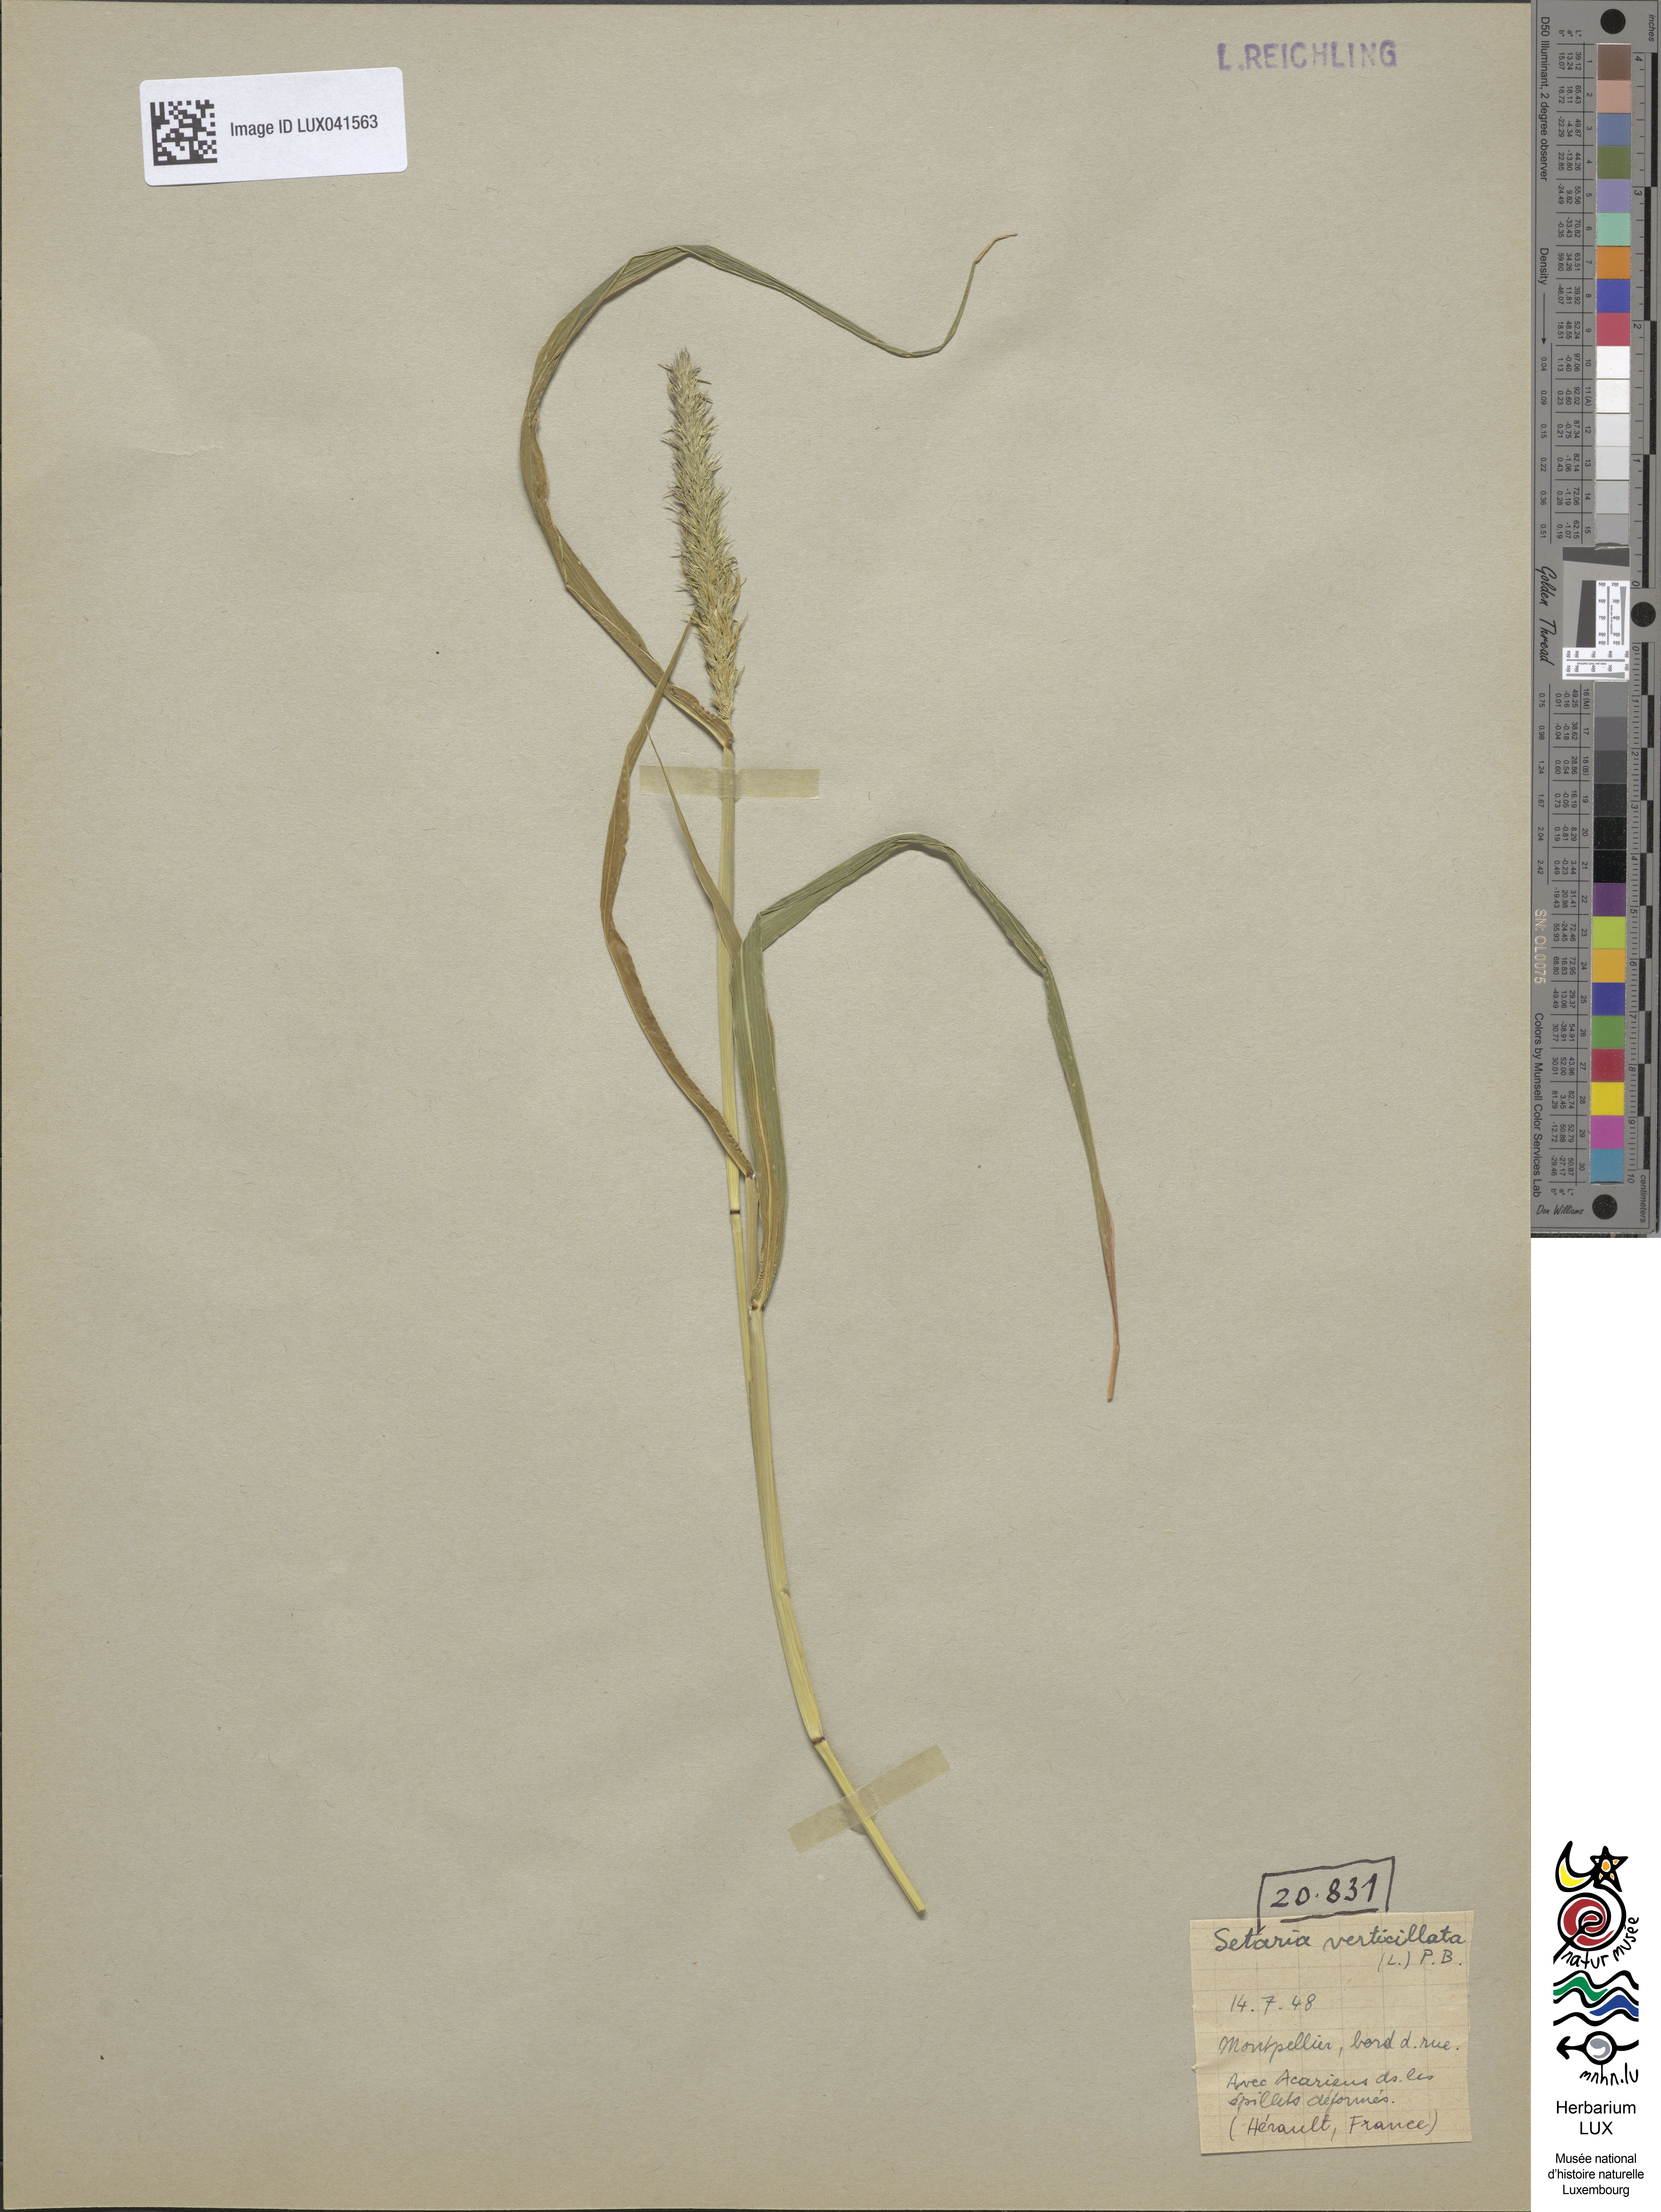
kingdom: Plantae
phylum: Tracheophyta
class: Liliopsida
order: Poales
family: Poaceae
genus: Setaria
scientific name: Setaria verticillata
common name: Hooked bristlegrass
